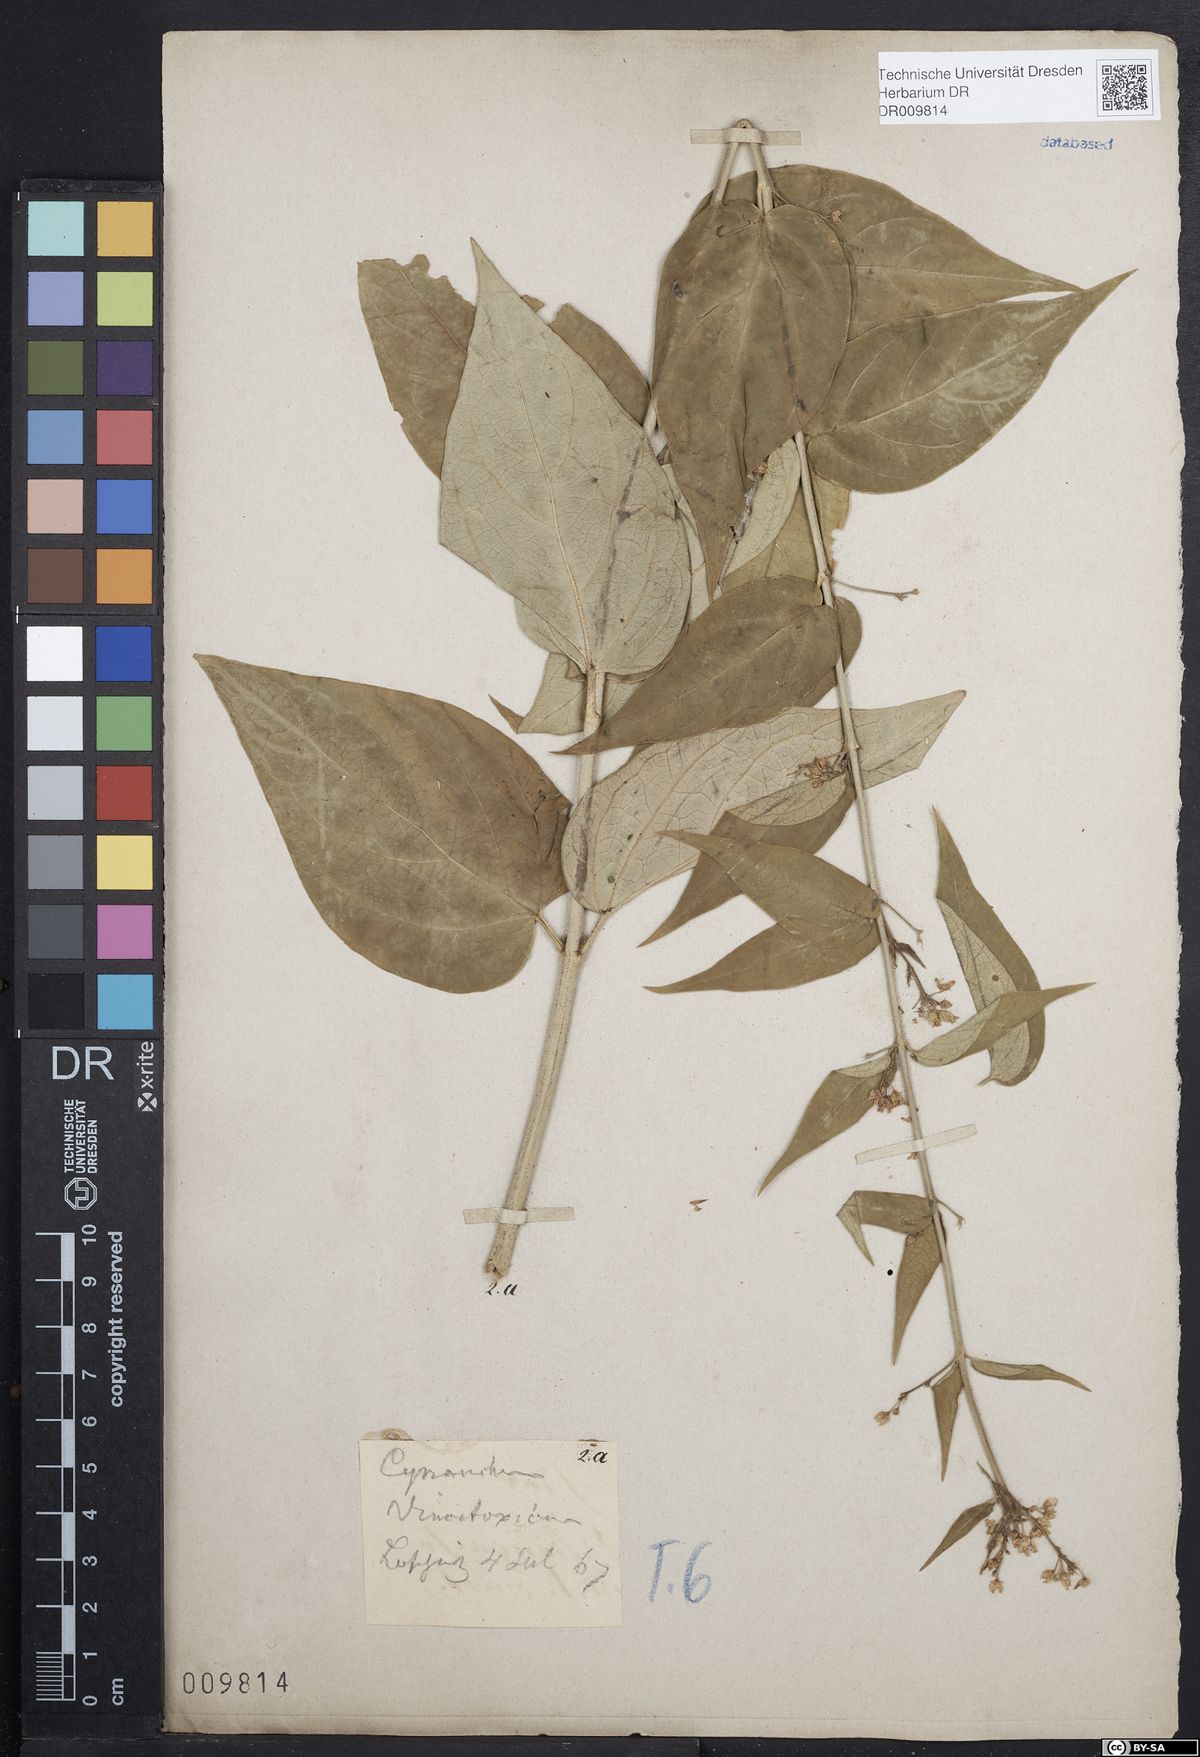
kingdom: Plantae
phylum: Tracheophyta
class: Magnoliopsida
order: Gentianales
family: Apocynaceae
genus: Vincetoxicum
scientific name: Vincetoxicum hirundinaria
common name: White swallowwort
